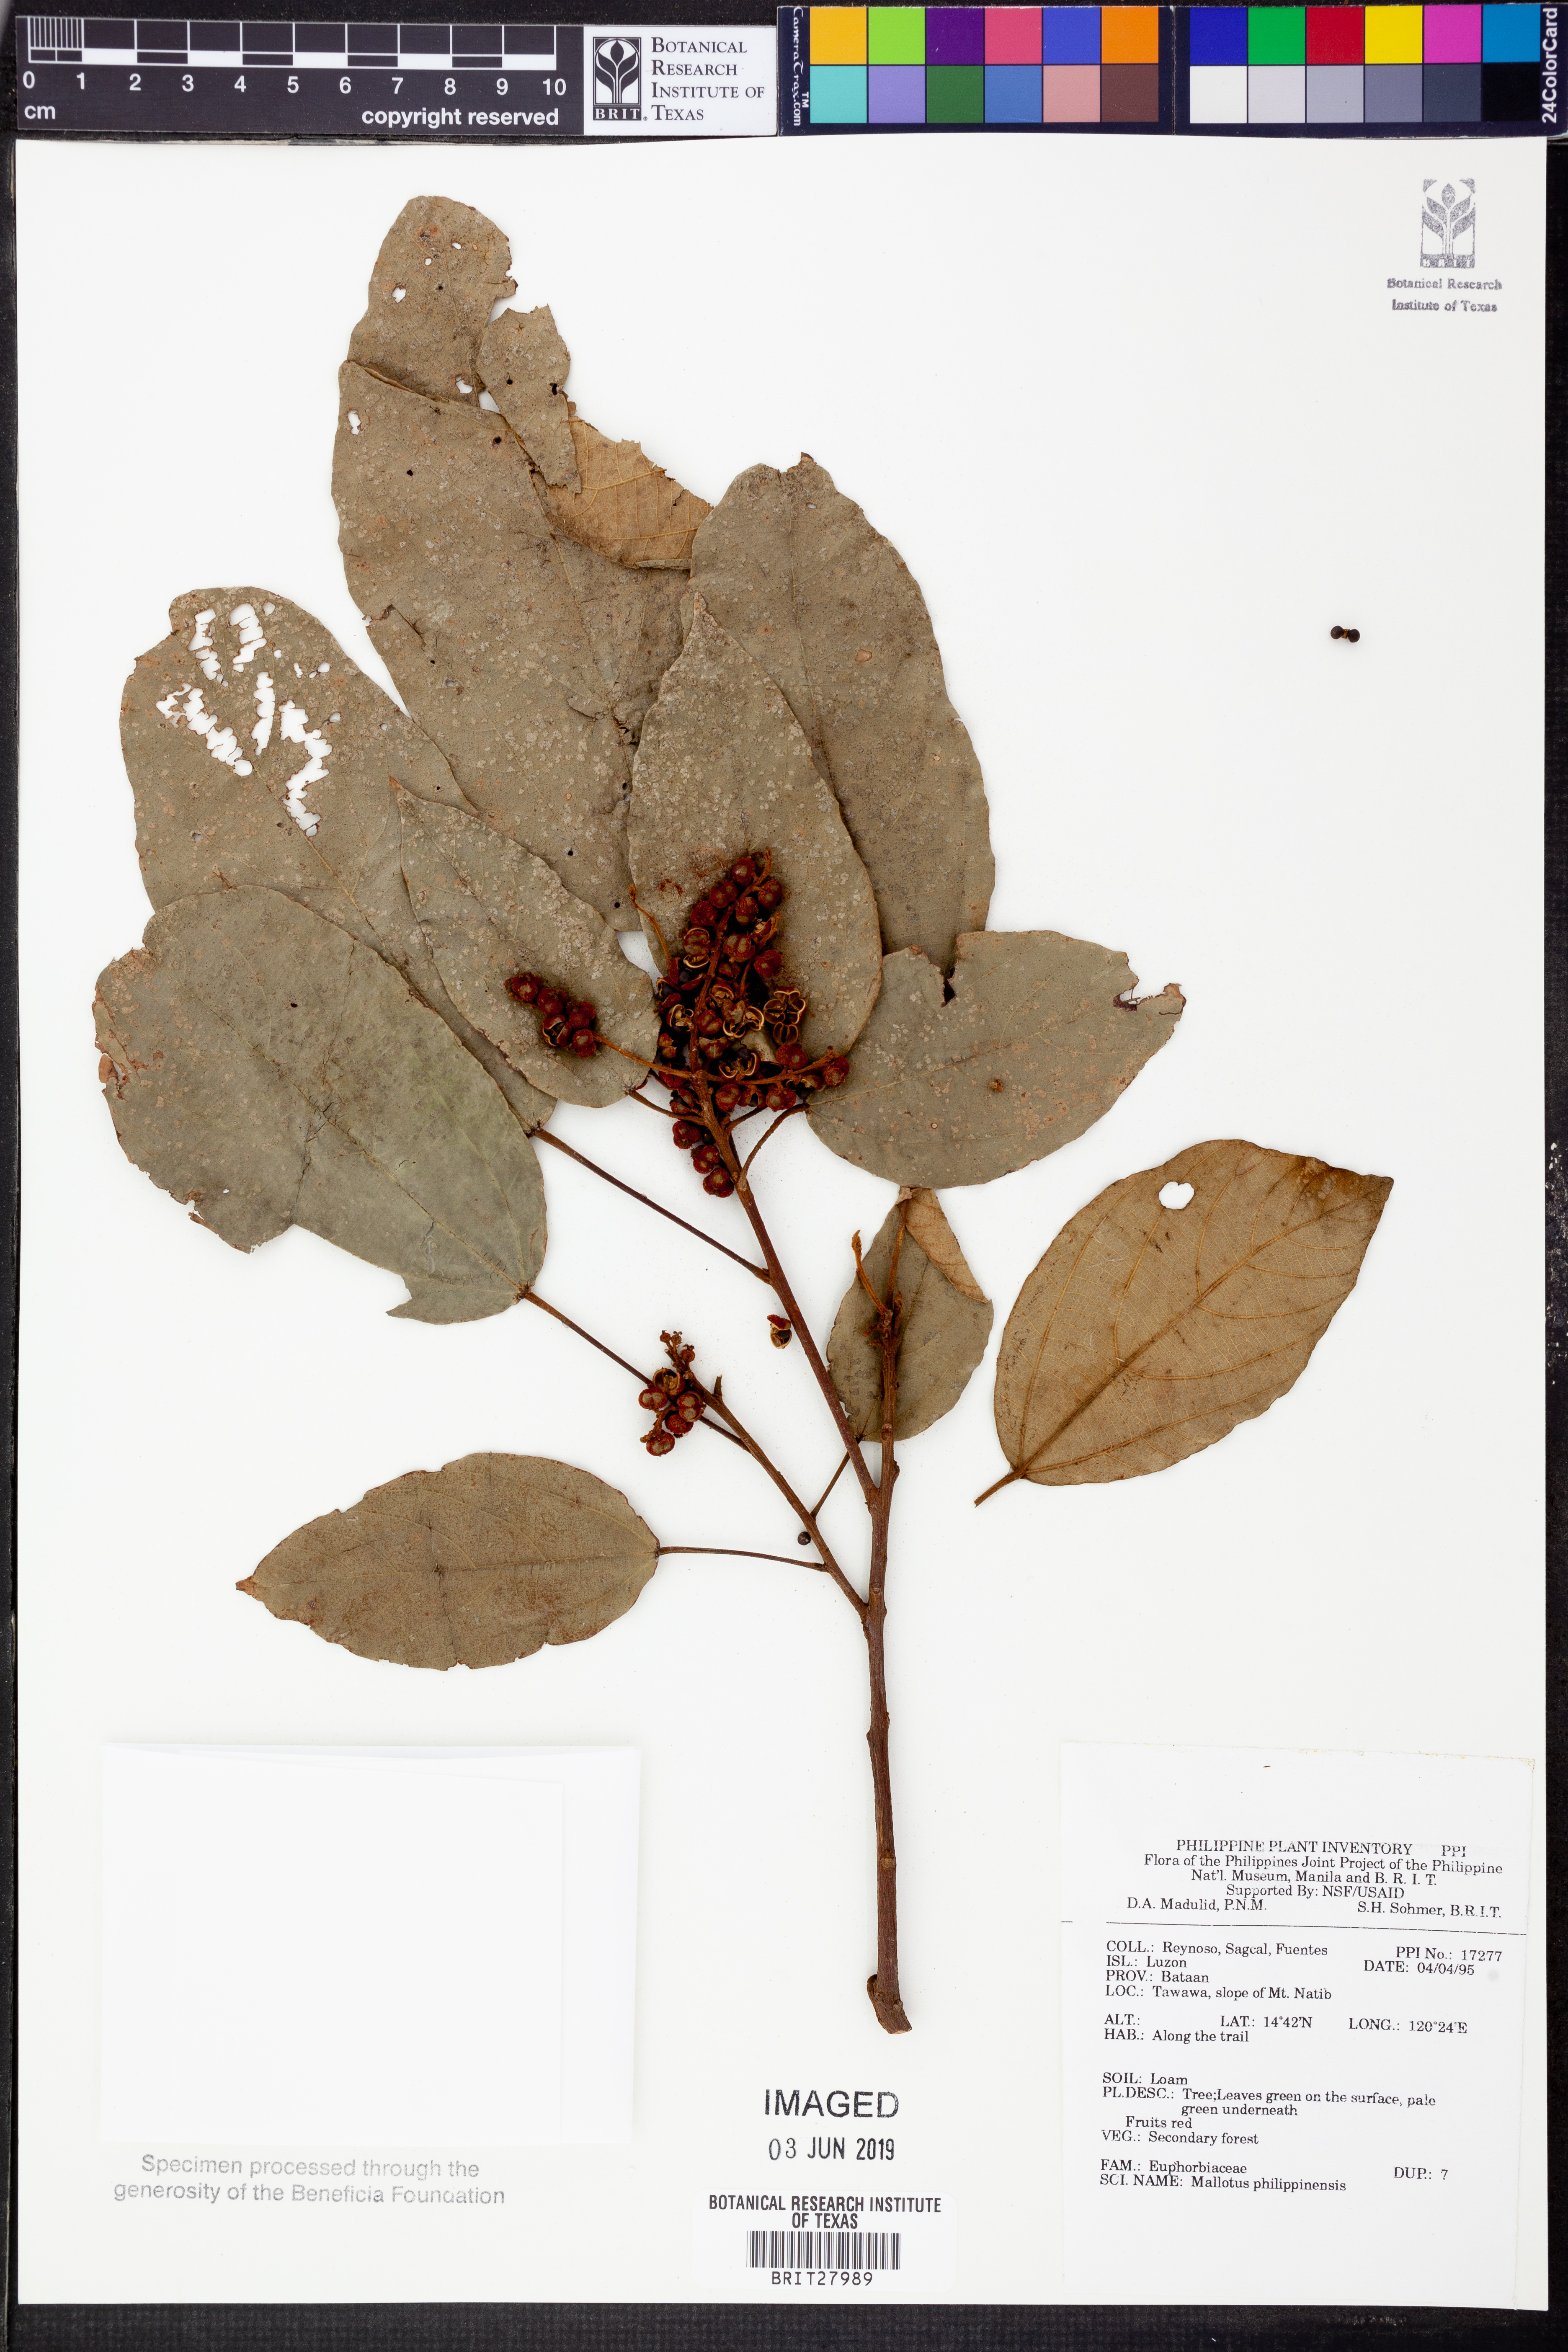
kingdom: Plantae
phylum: Tracheophyta
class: Magnoliopsida
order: Malpighiales
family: Euphorbiaceae
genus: Mallotus
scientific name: Mallotus philippensis
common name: Kamala tree
